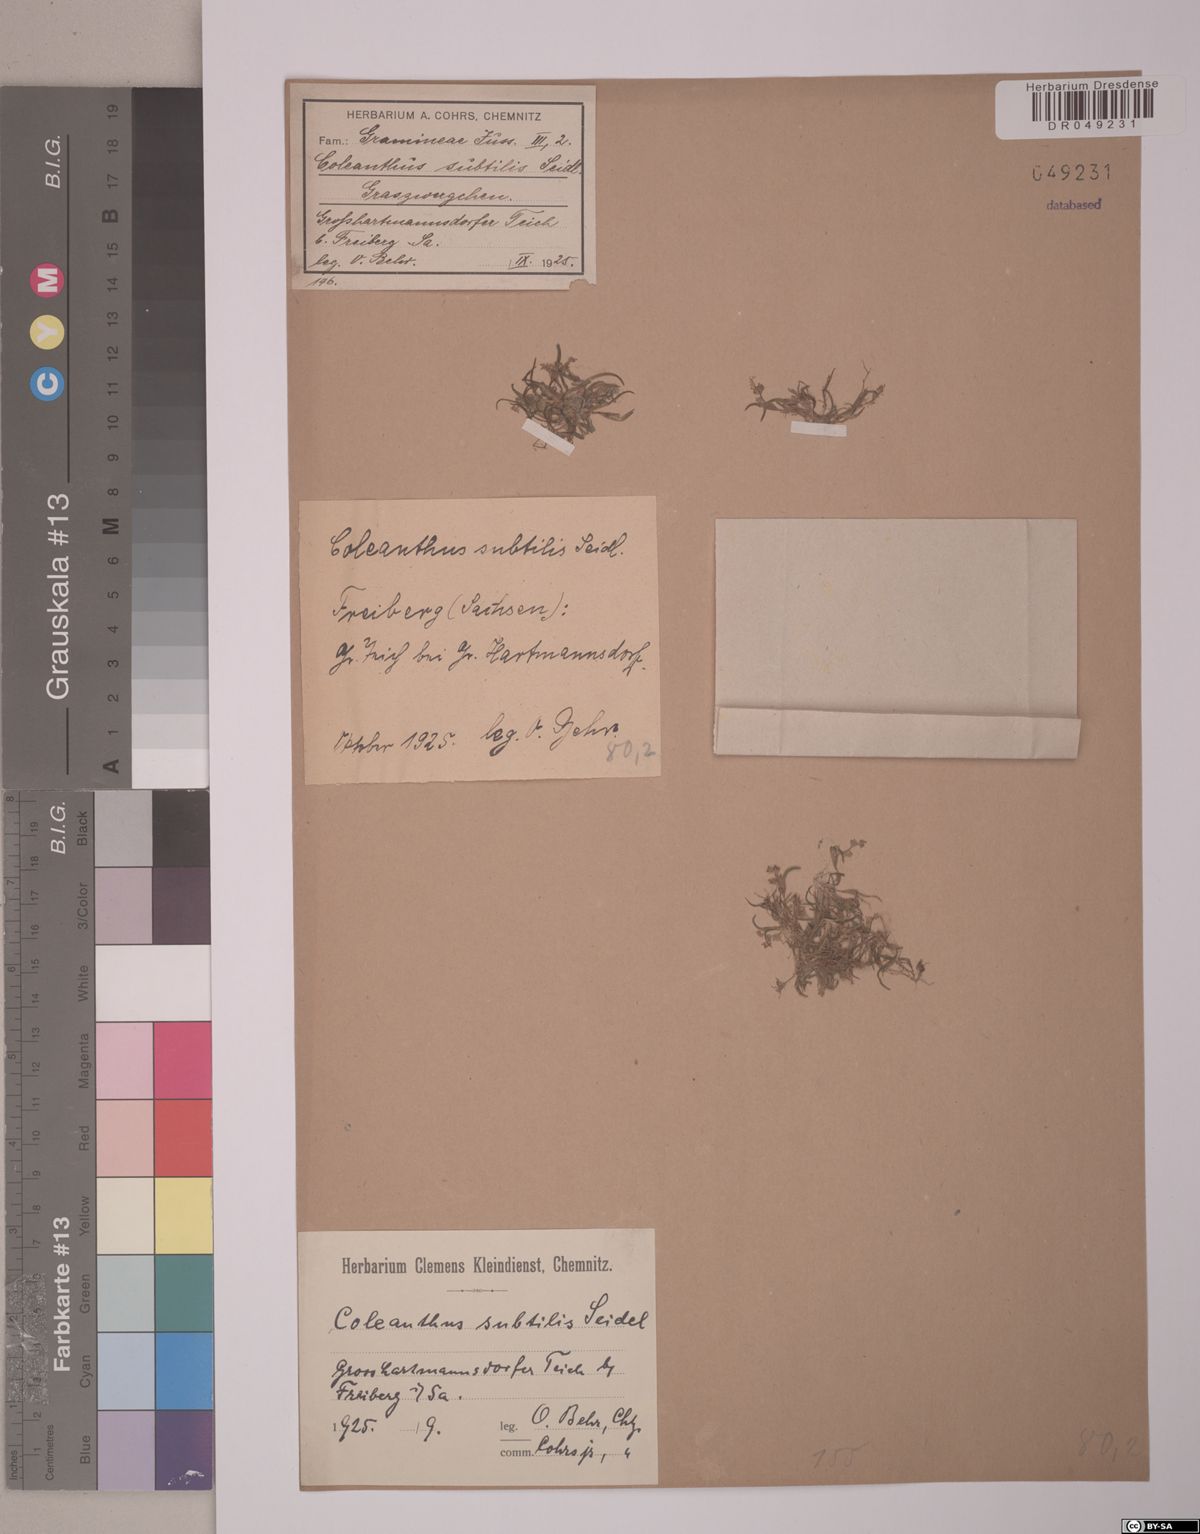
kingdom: Plantae
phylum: Tracheophyta
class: Liliopsida
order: Poales
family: Poaceae
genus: Coleanthus
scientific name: Coleanthus subtilis
